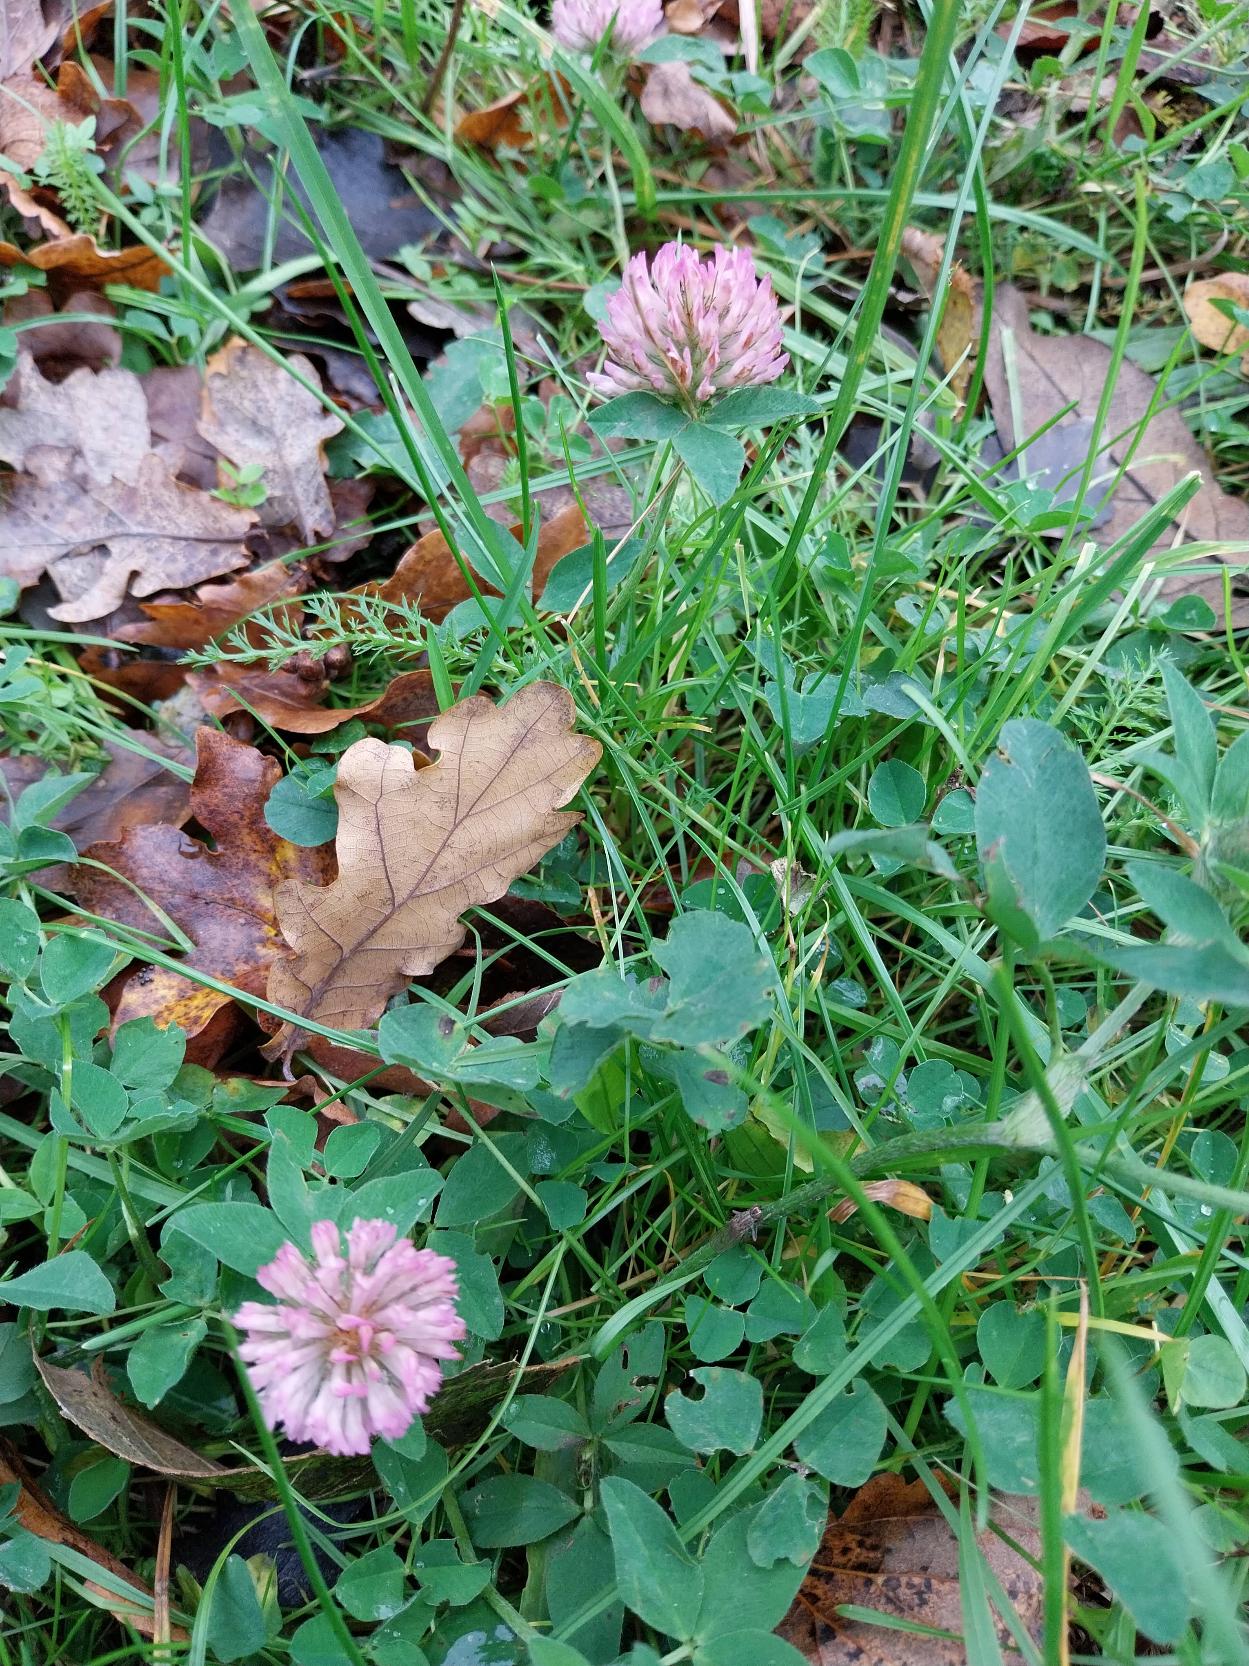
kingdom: Plantae
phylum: Tracheophyta
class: Magnoliopsida
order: Fabales
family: Fabaceae
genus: Trifolium
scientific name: Trifolium pratense
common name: Rød-kløver
